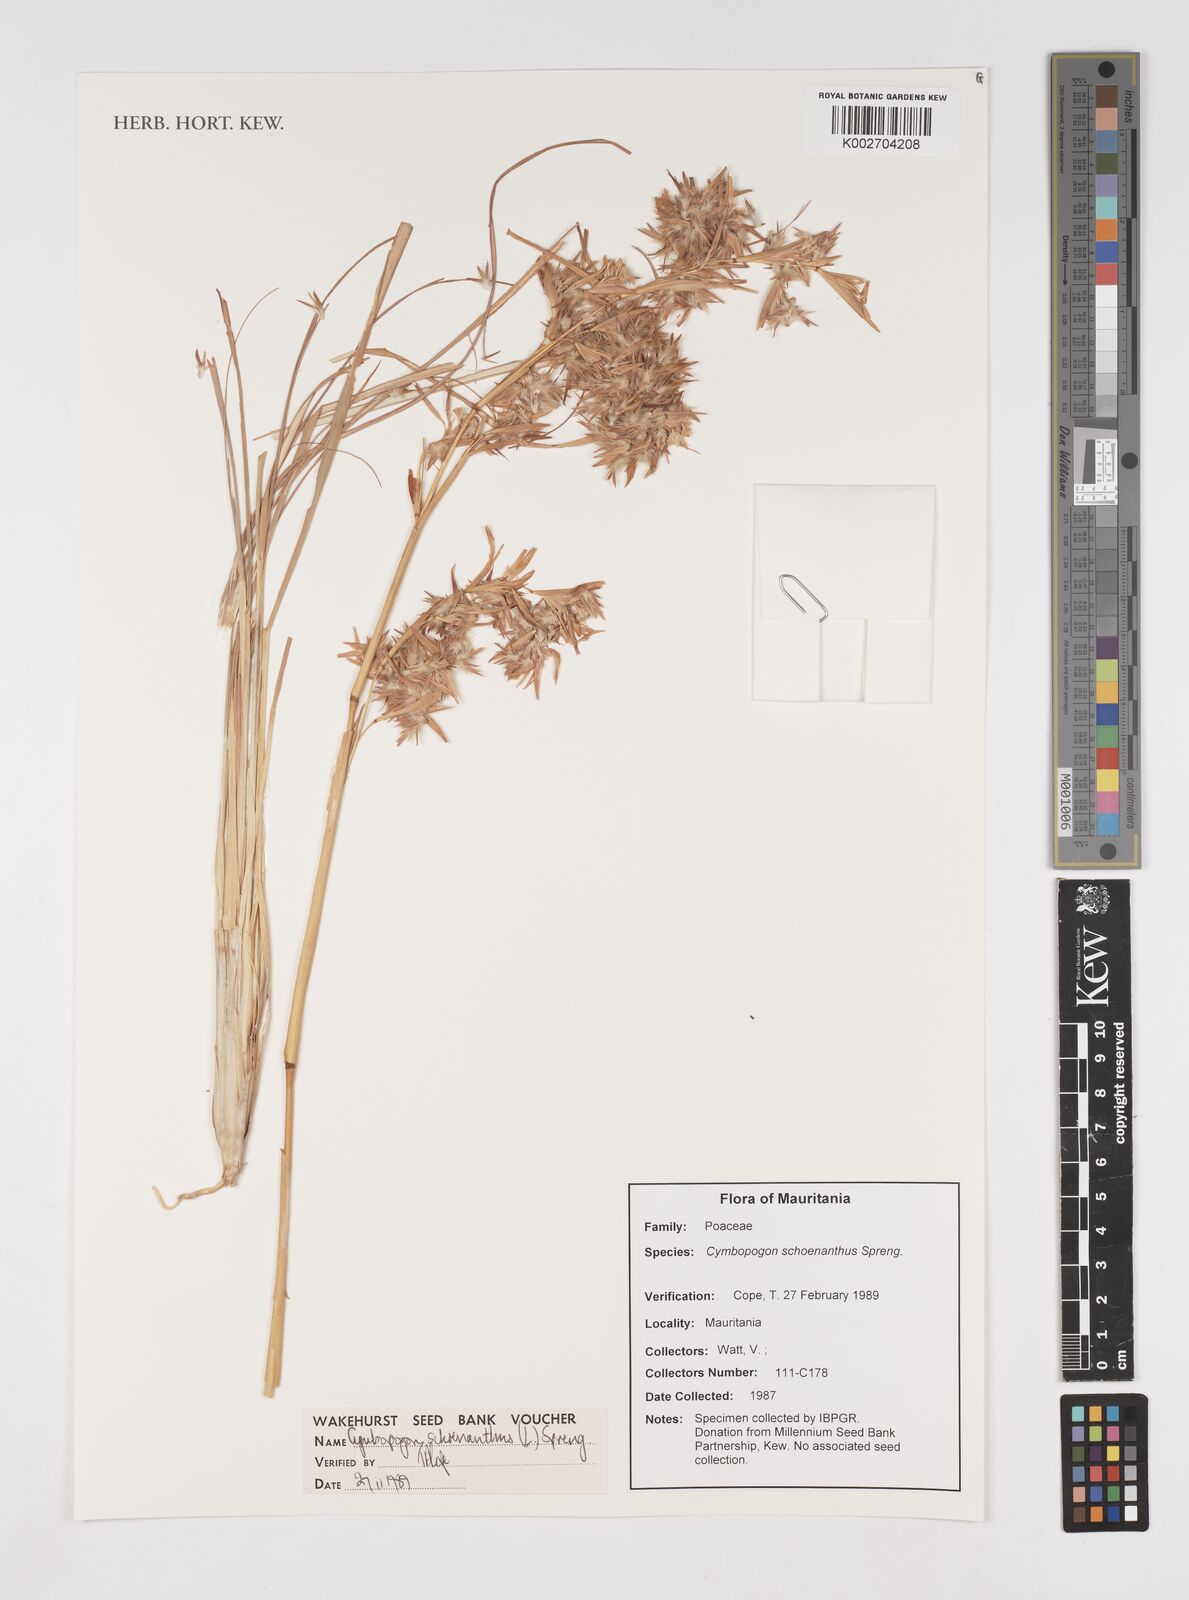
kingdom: Plantae
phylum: Tracheophyta
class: Liliopsida
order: Poales
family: Poaceae
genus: Cymbopogon
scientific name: Cymbopogon schoenanthus
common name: Geranium grass
